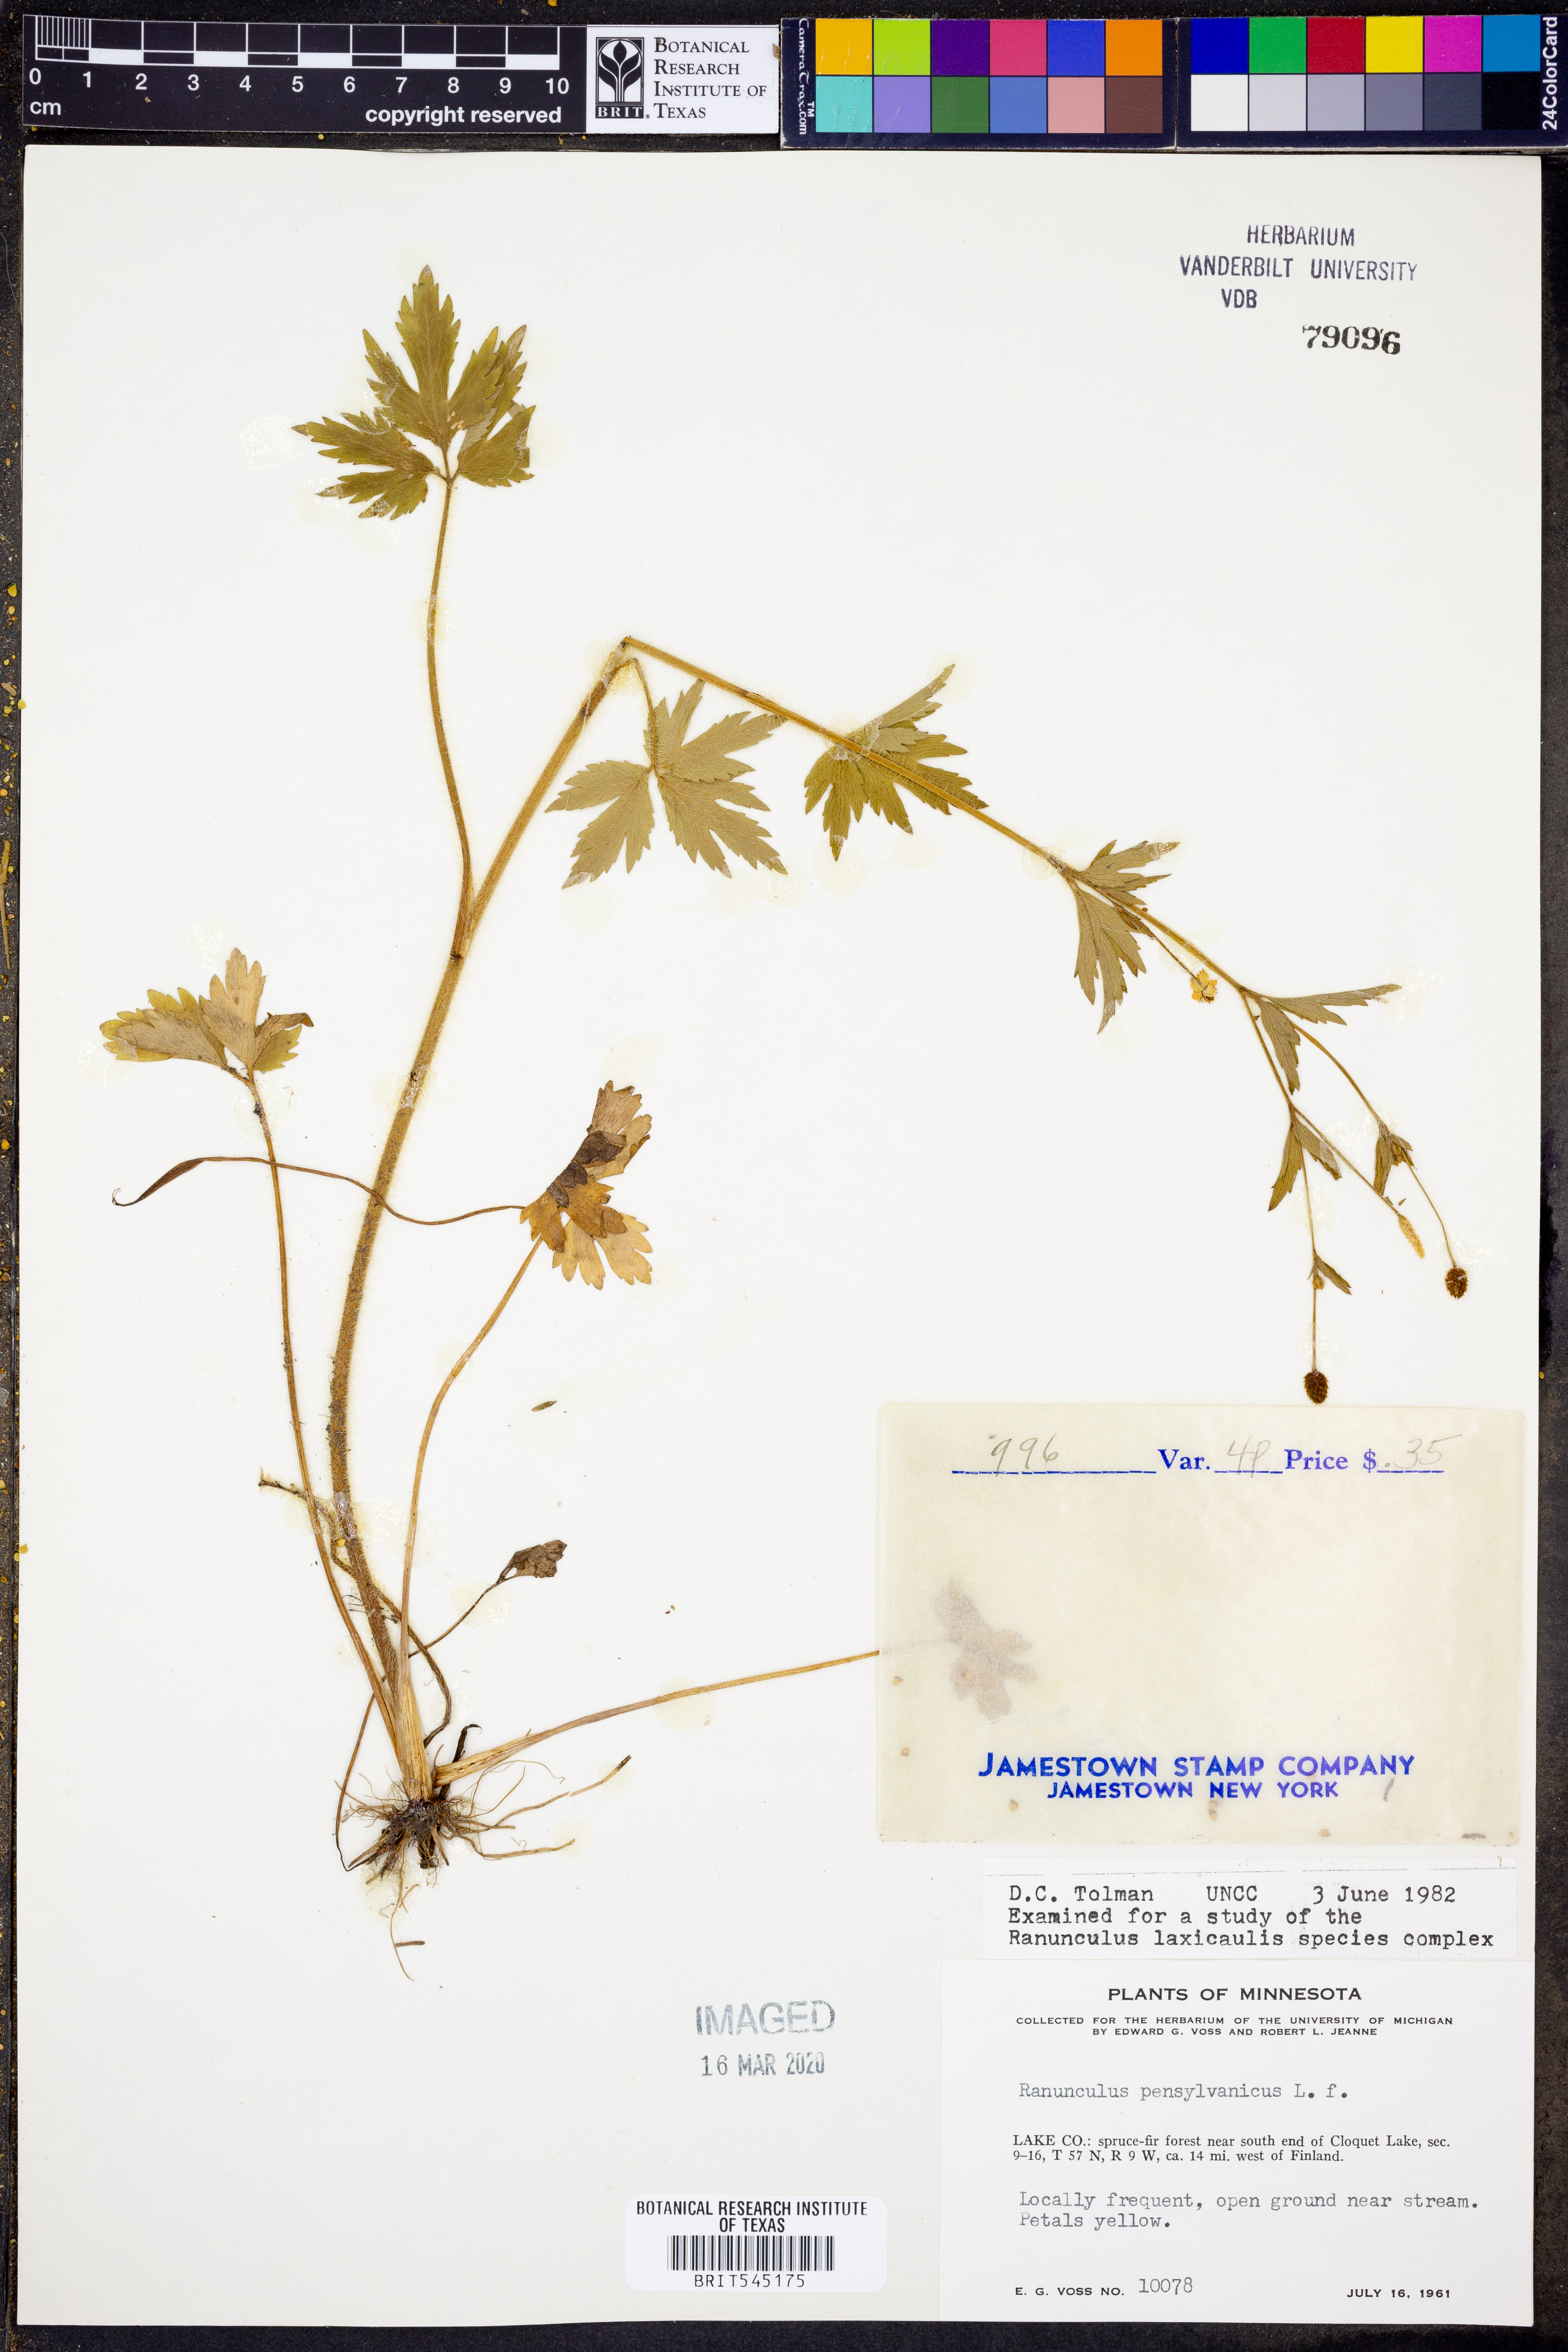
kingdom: Plantae
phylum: Tracheophyta
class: Magnoliopsida
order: Ranunculales
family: Ranunculaceae
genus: Ranunculus
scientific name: Ranunculus pensylvanicus
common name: Bristly buttercup
